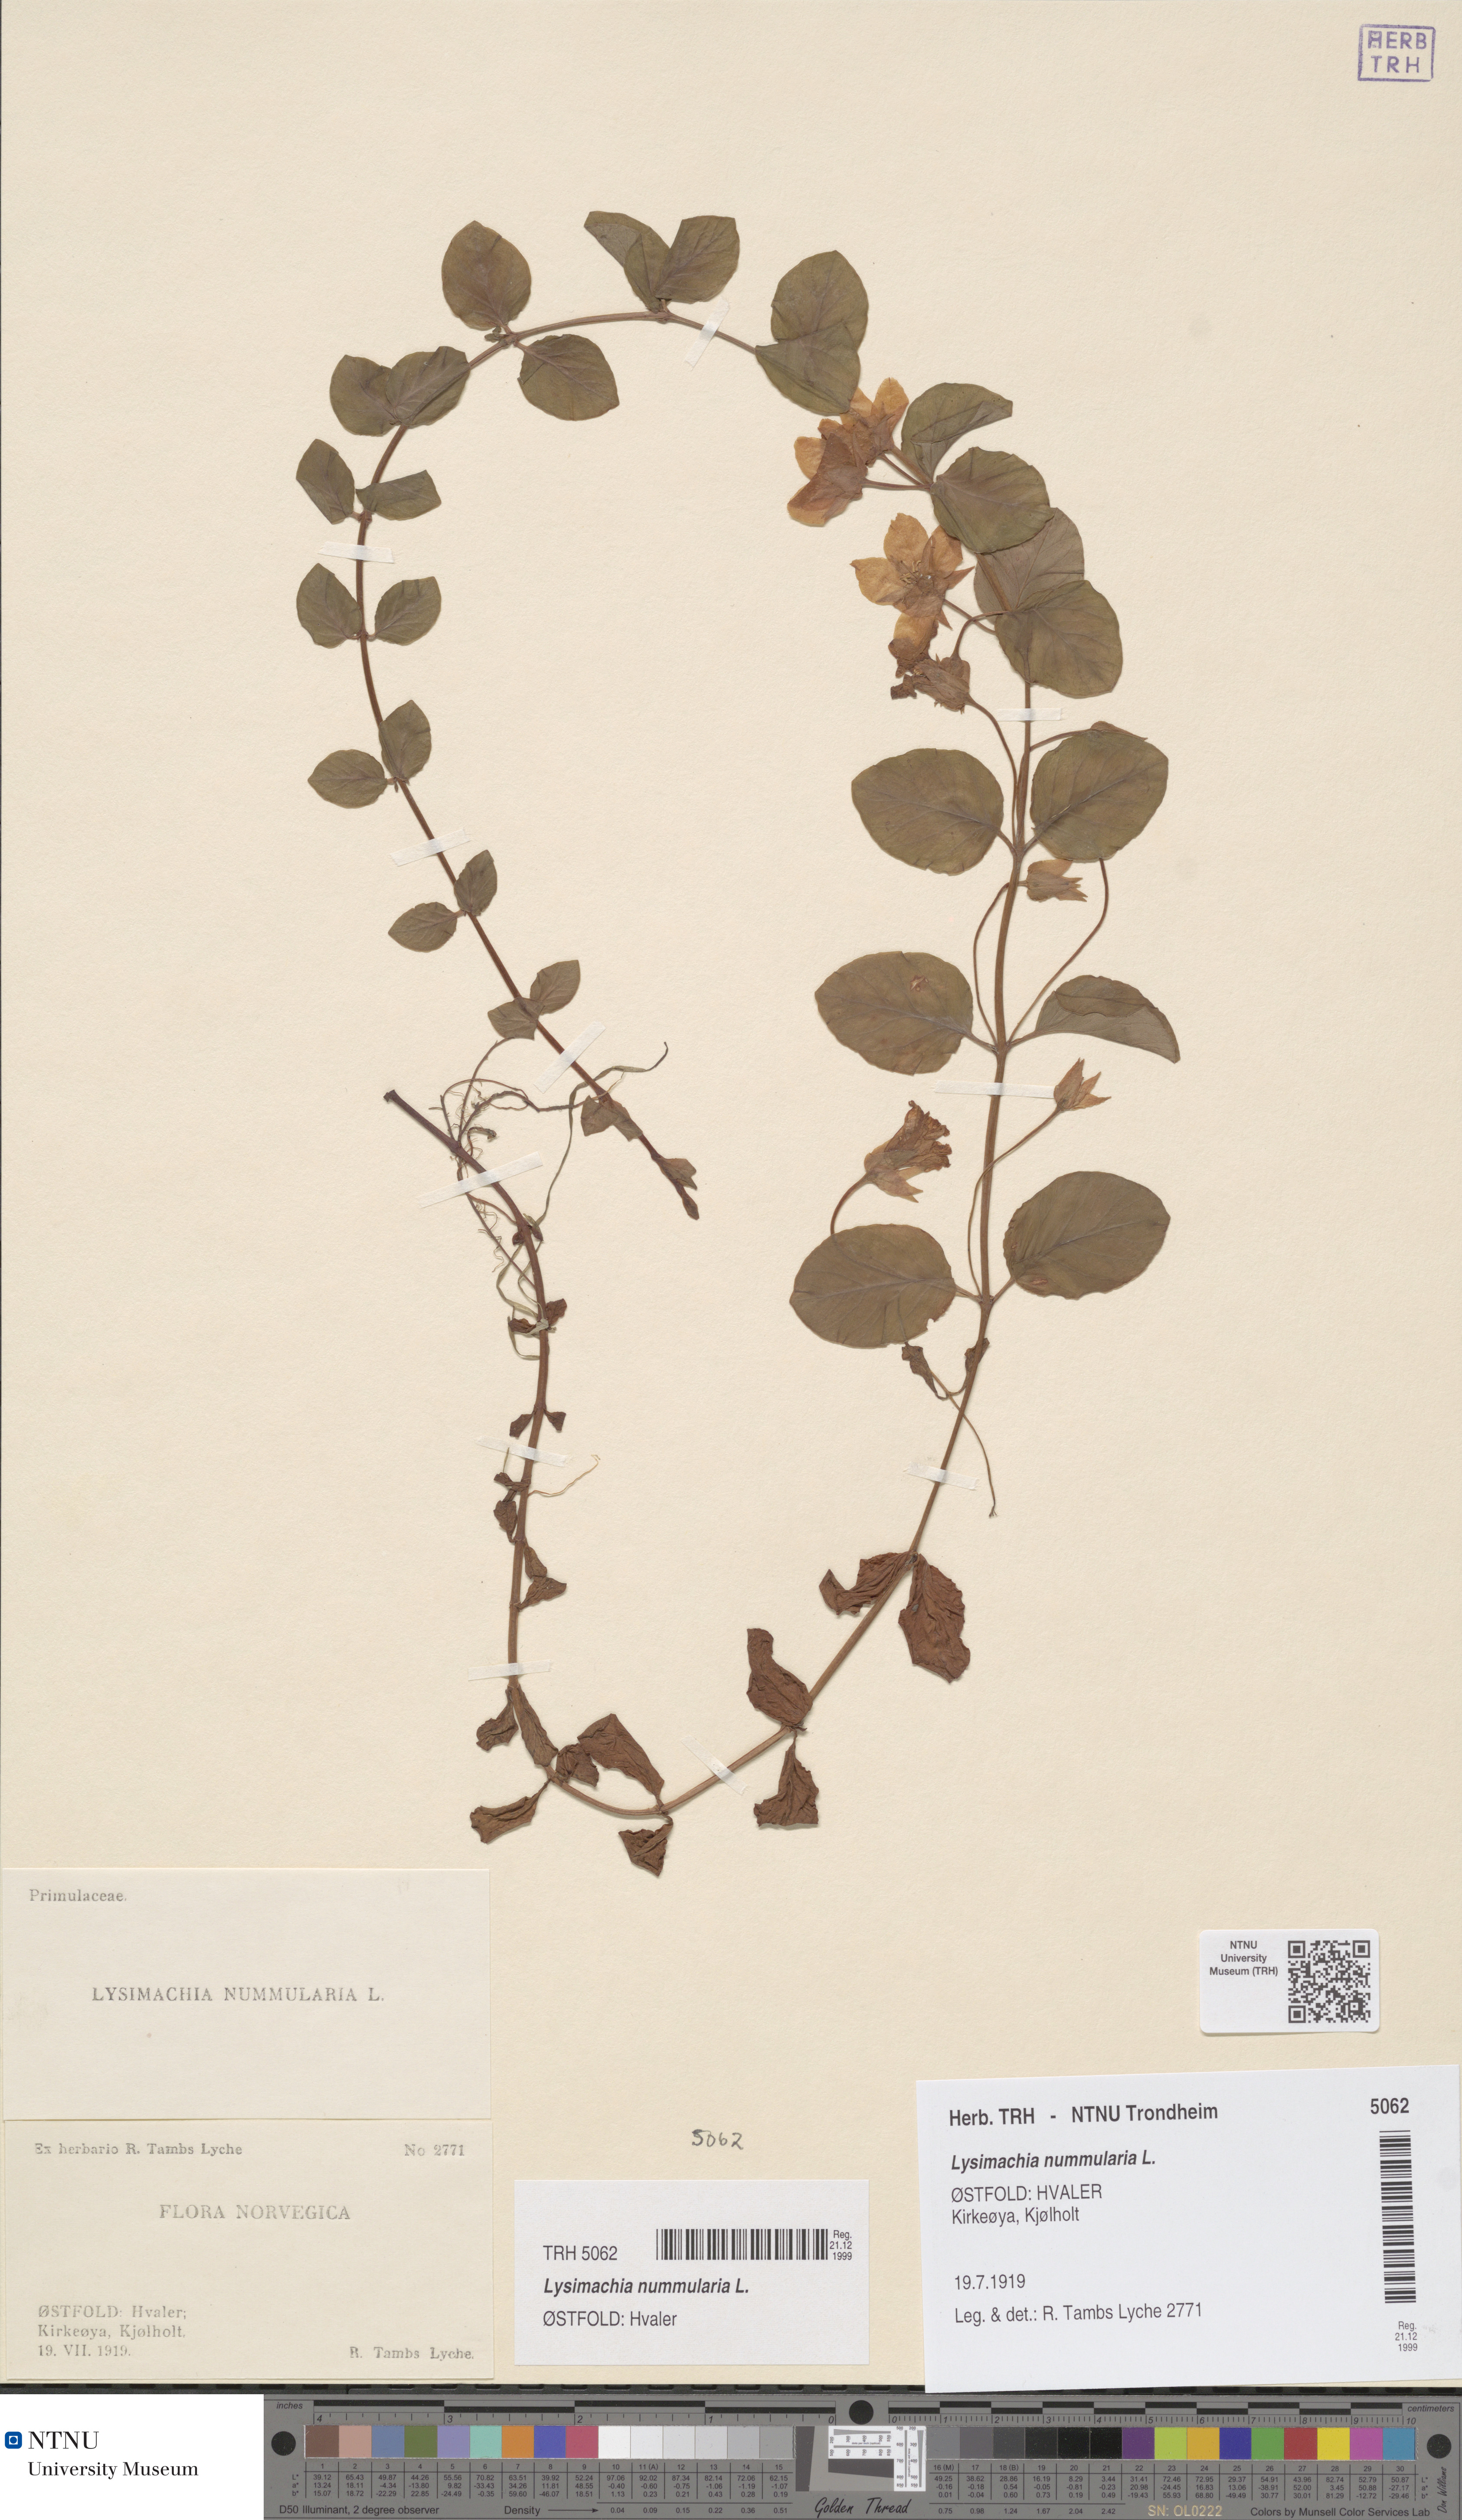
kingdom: Plantae
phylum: Tracheophyta
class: Magnoliopsida
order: Ericales
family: Primulaceae
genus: Lysimachia
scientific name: Lysimachia nummularia
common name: Moneywort
